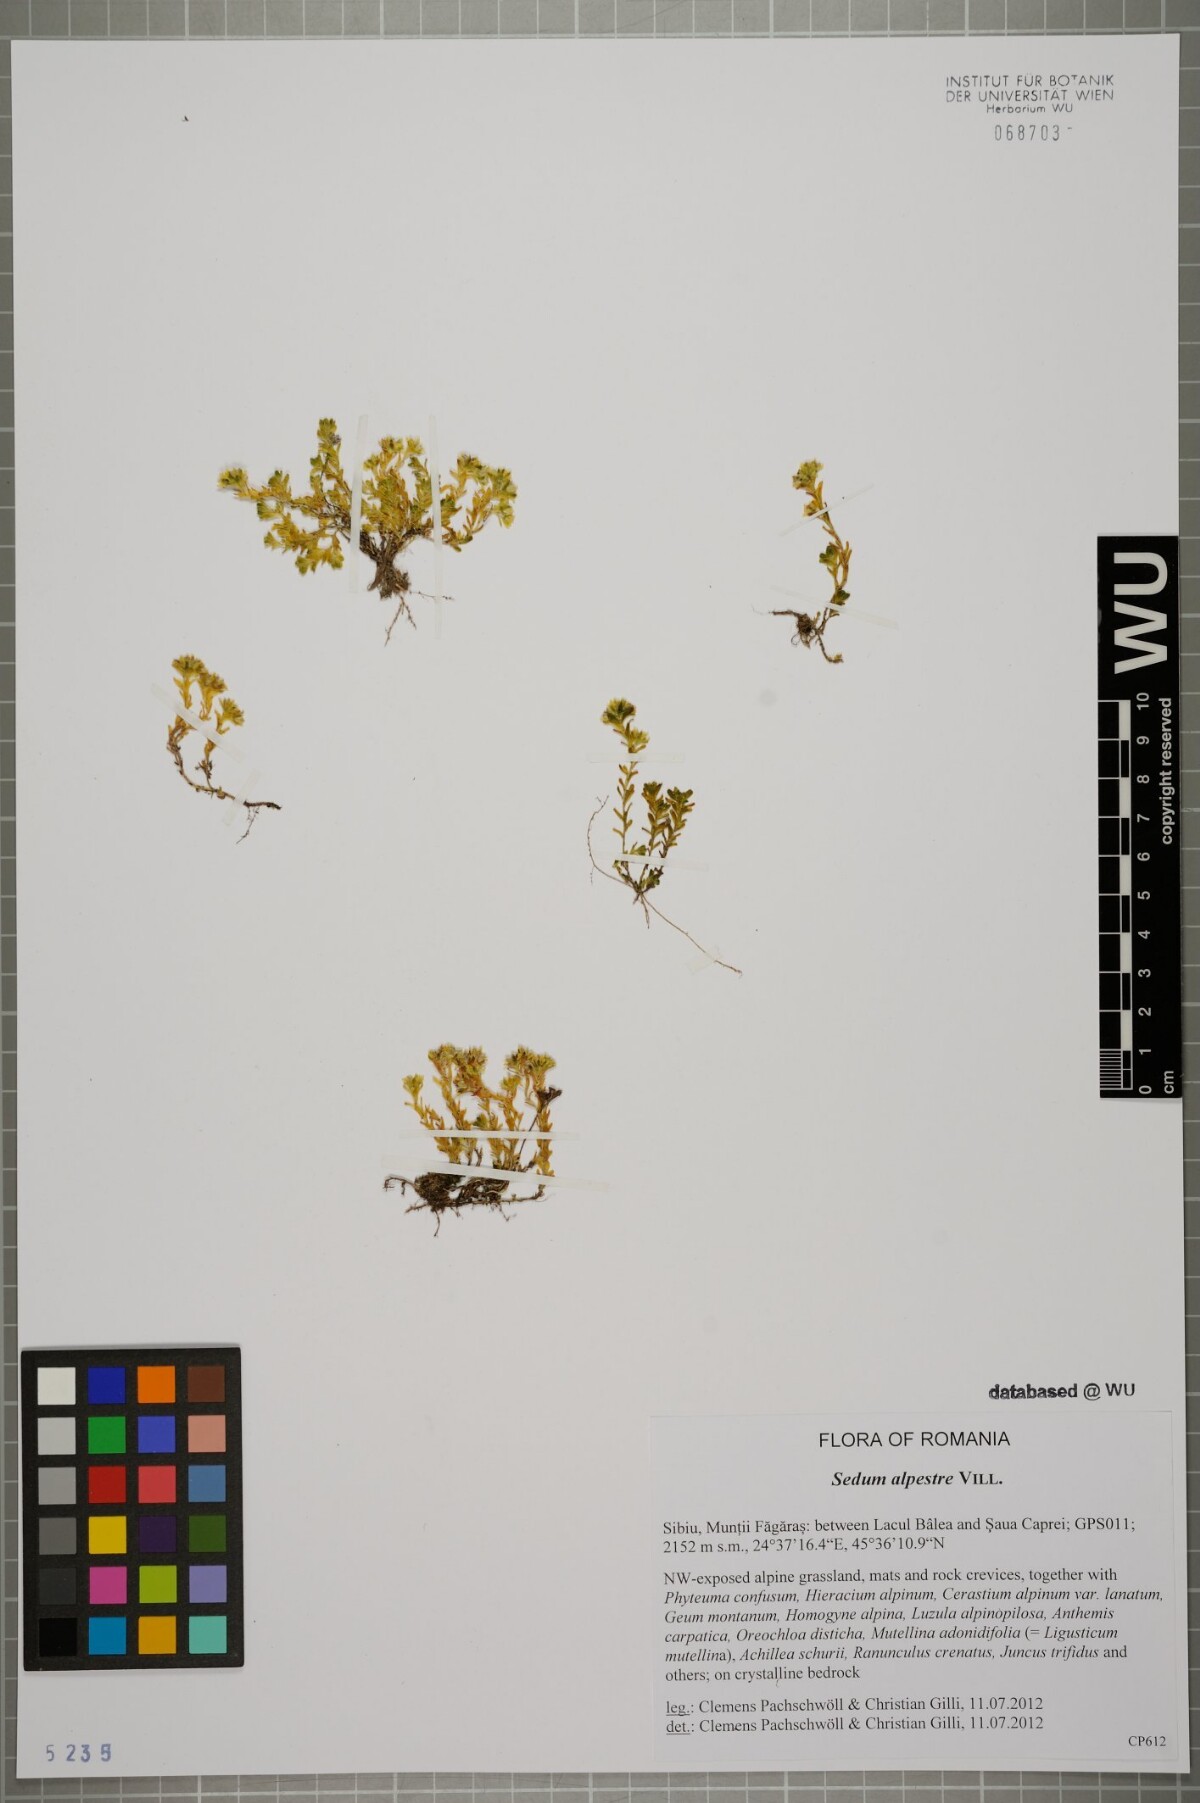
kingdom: Plantae
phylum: Tracheophyta
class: Magnoliopsida
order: Saxifragales
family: Crassulaceae
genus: Sedum
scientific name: Sedum alpestre
